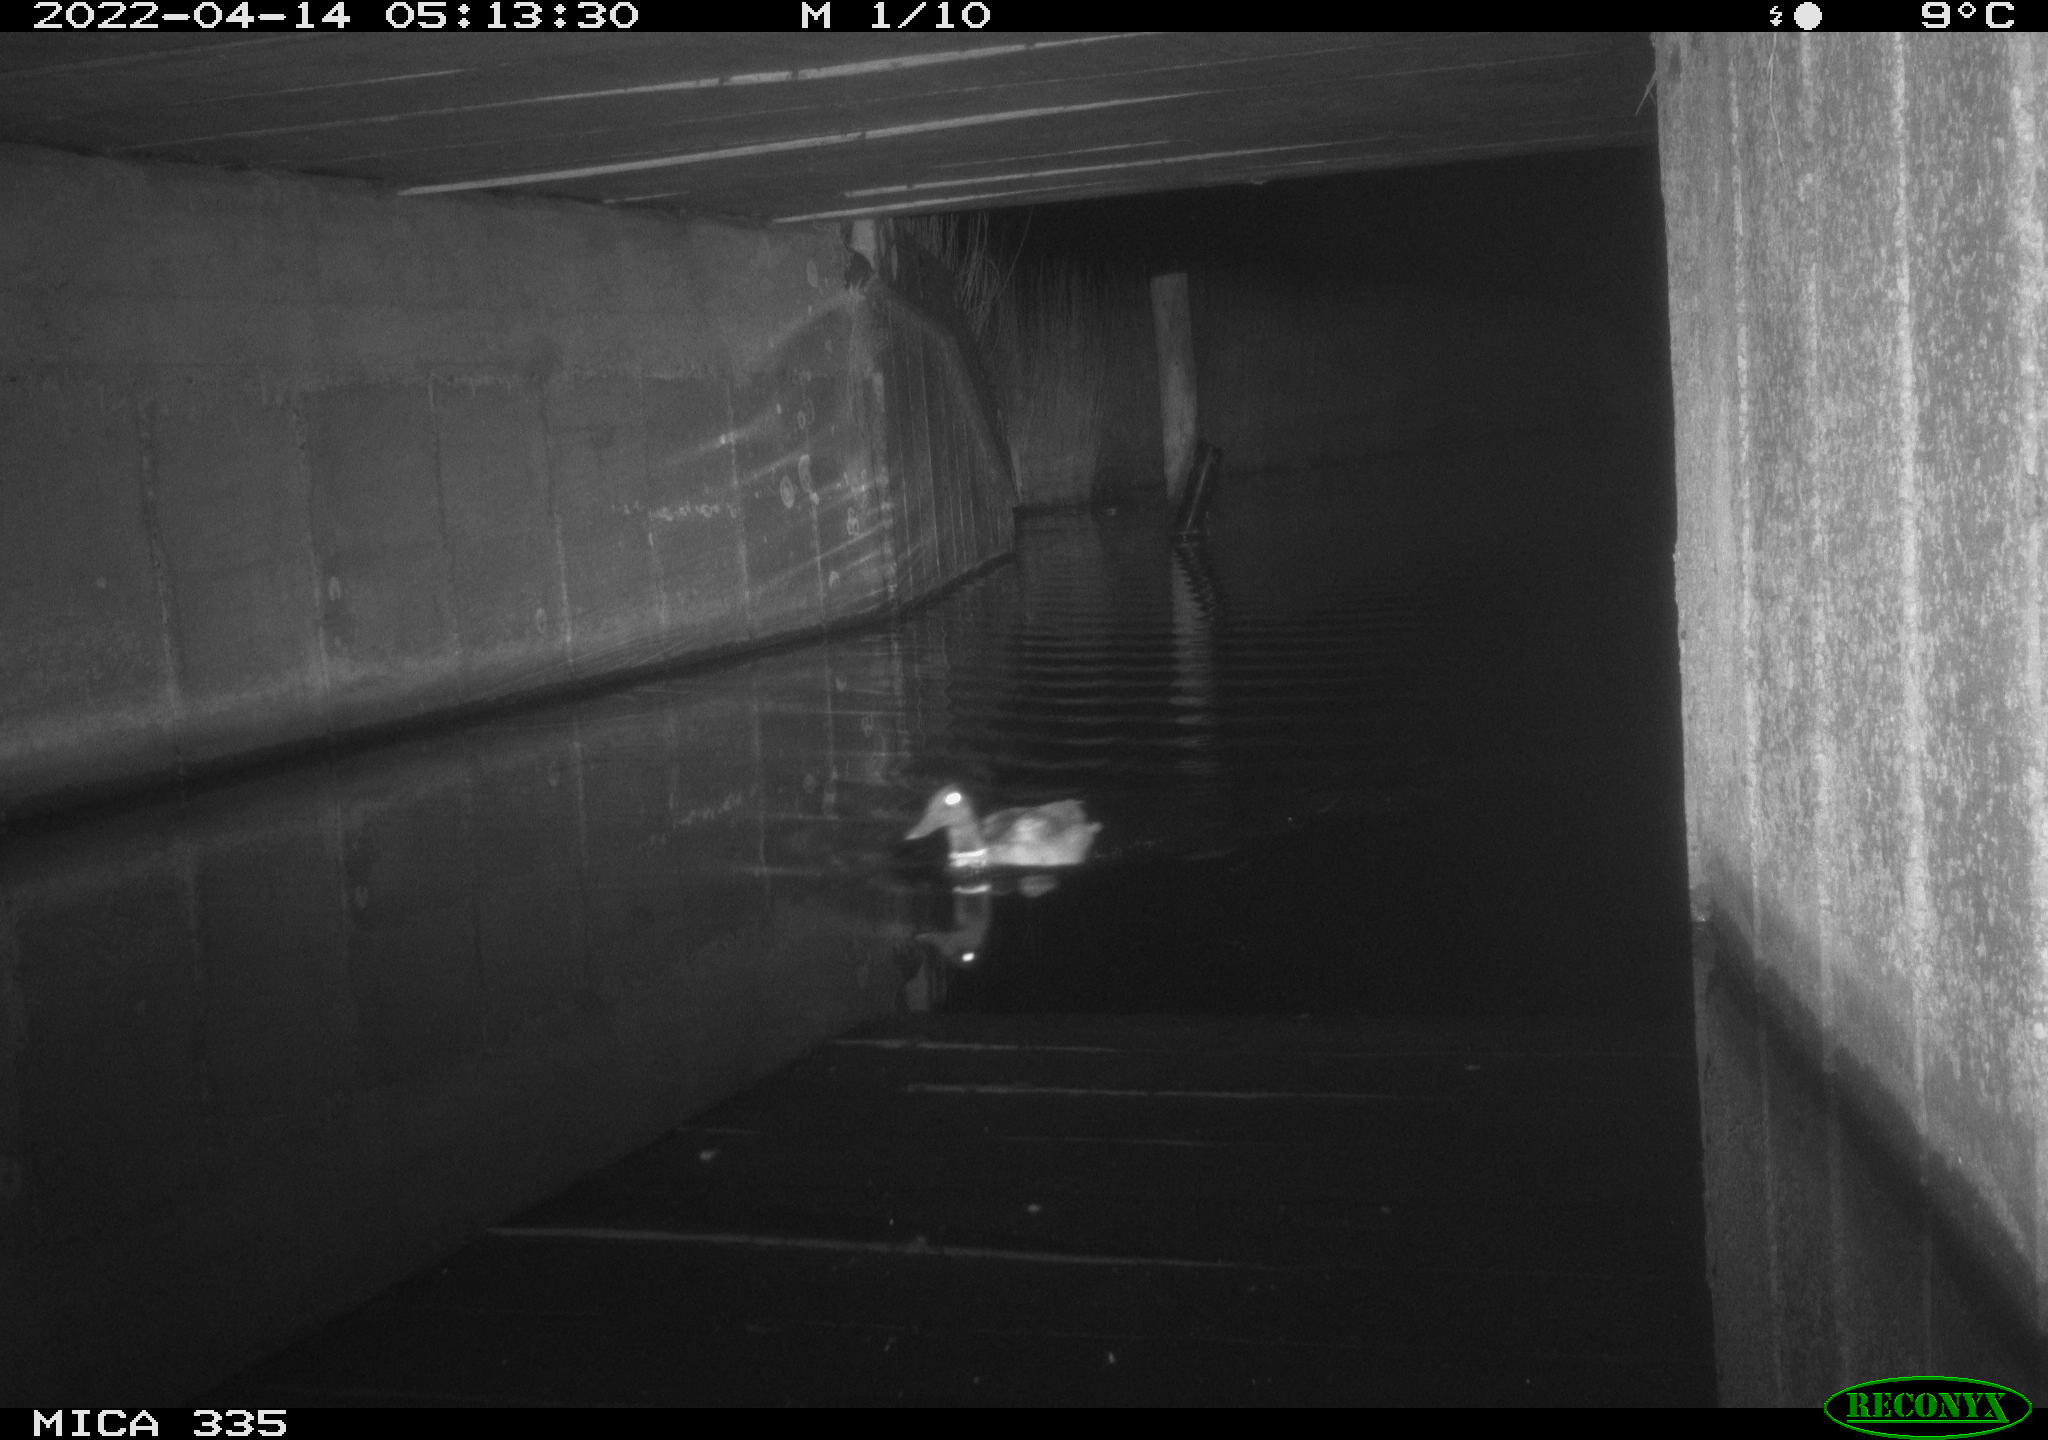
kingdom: Animalia
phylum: Chordata
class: Aves
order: Anseriformes
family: Anatidae
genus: Anas
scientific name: Anas platyrhynchos
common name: Mallard
